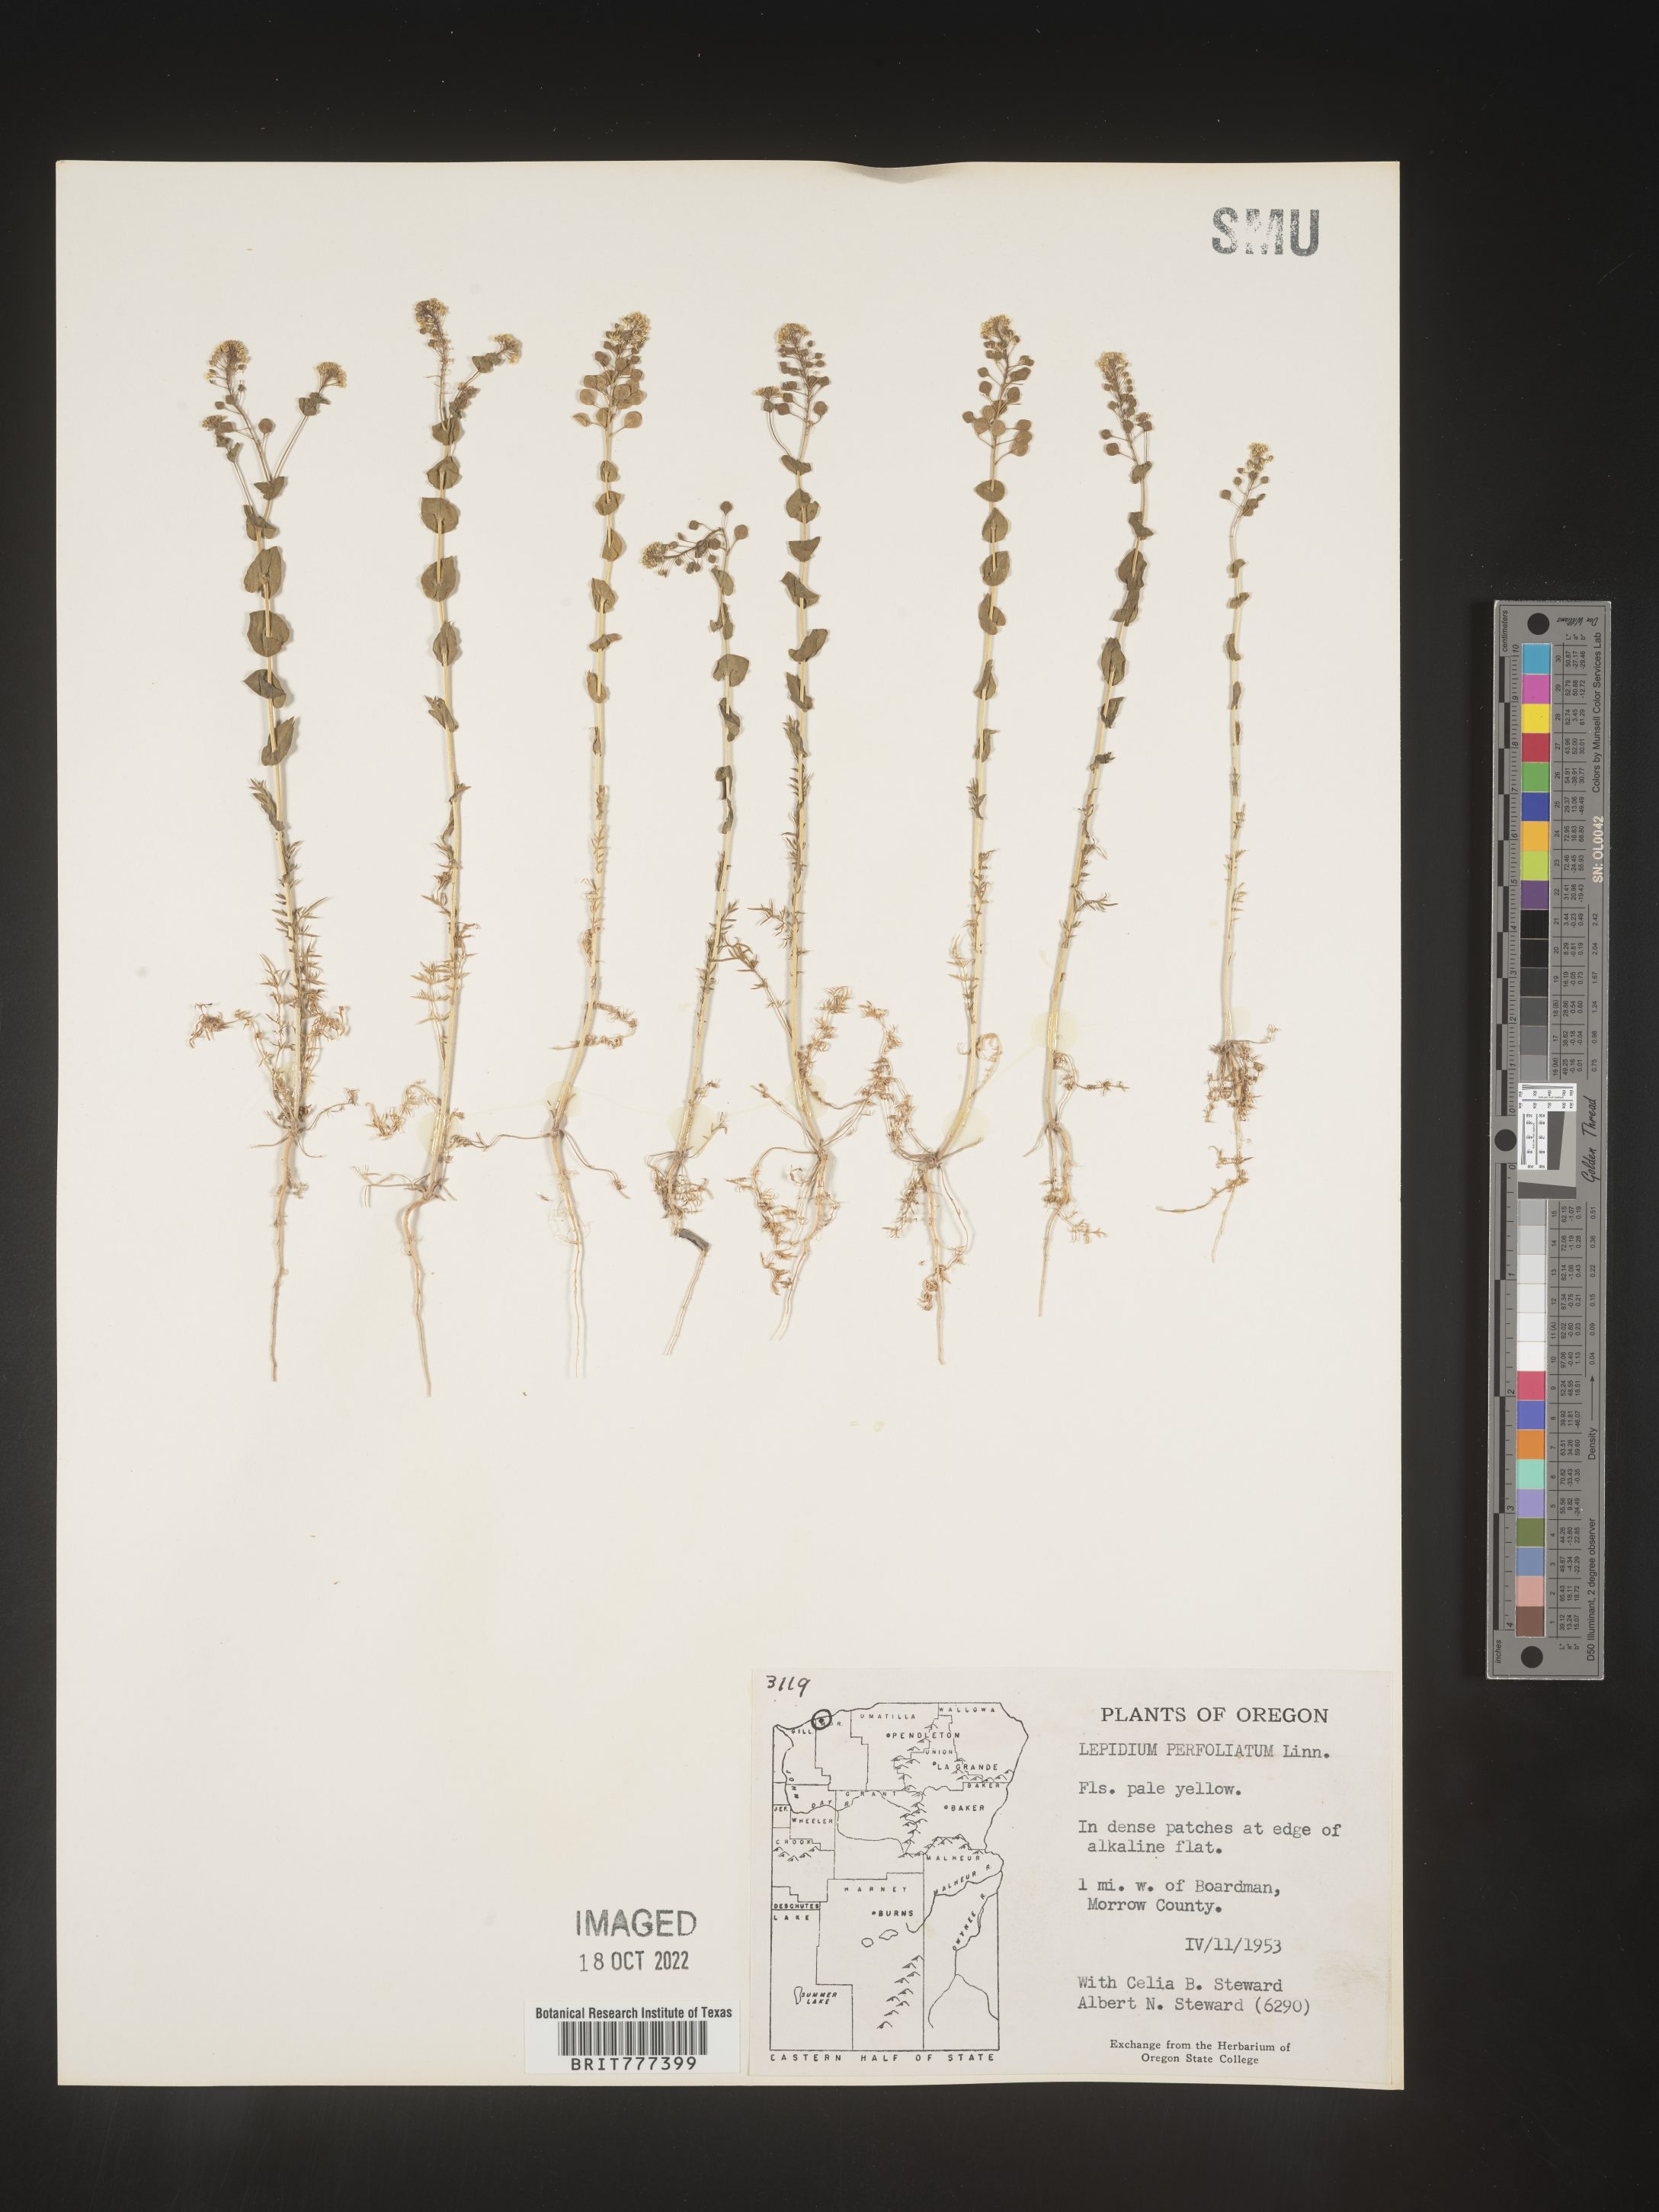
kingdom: Plantae
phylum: Tracheophyta
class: Magnoliopsida
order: Brassicales
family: Brassicaceae
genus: Lepidium
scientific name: Lepidium perfoliatum
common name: Perfoliate pepperwort
